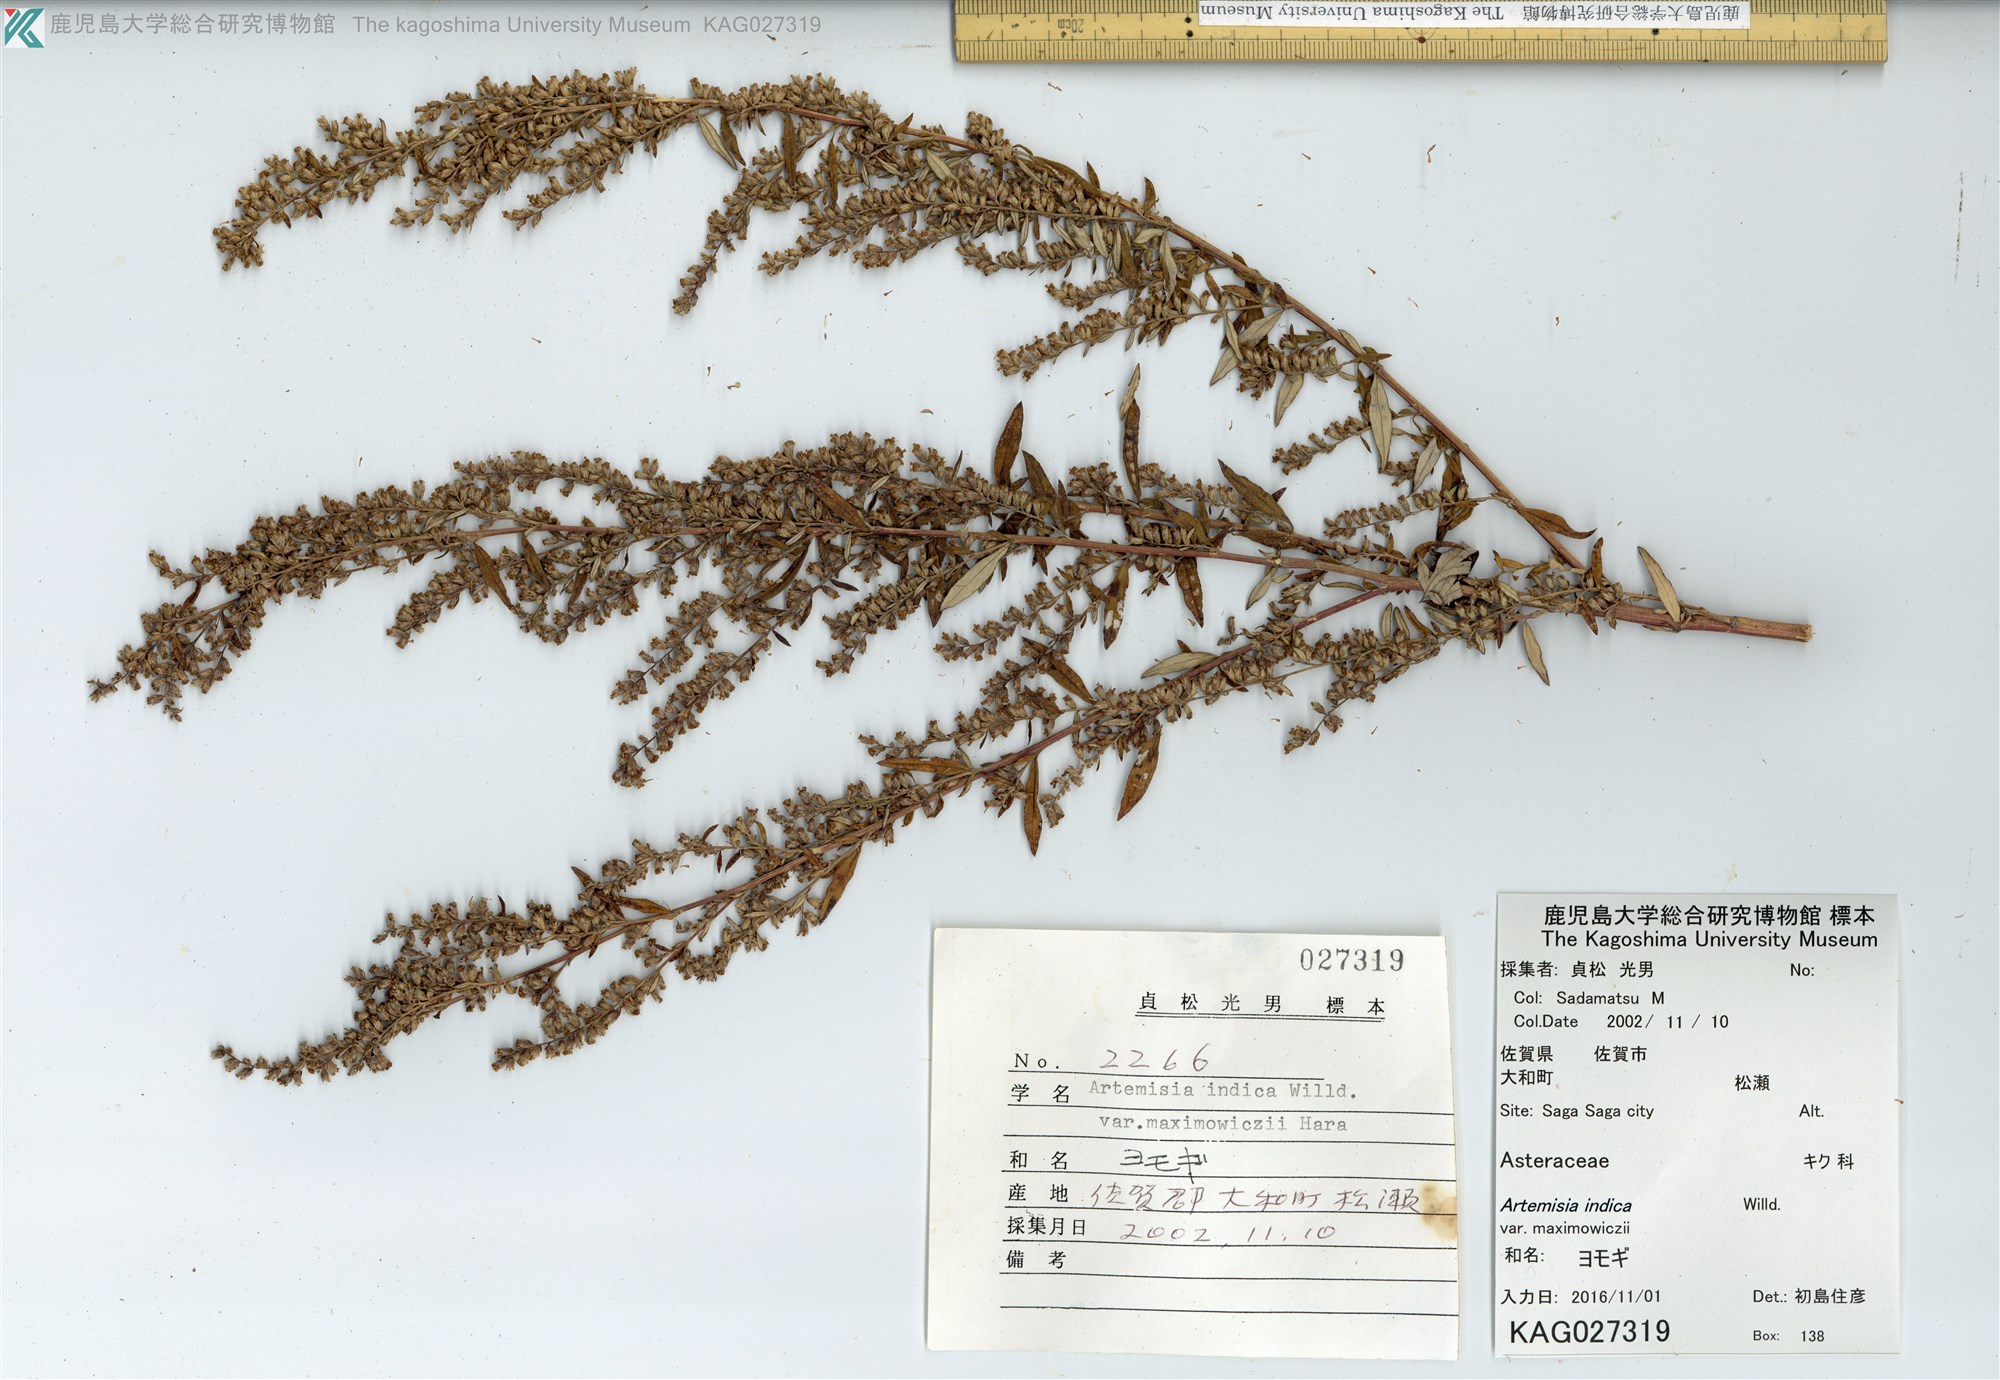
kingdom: Plantae
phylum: Tracheophyta
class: Magnoliopsida
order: Asterales
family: Asteraceae
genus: Artemisia
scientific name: Artemisia princeps
